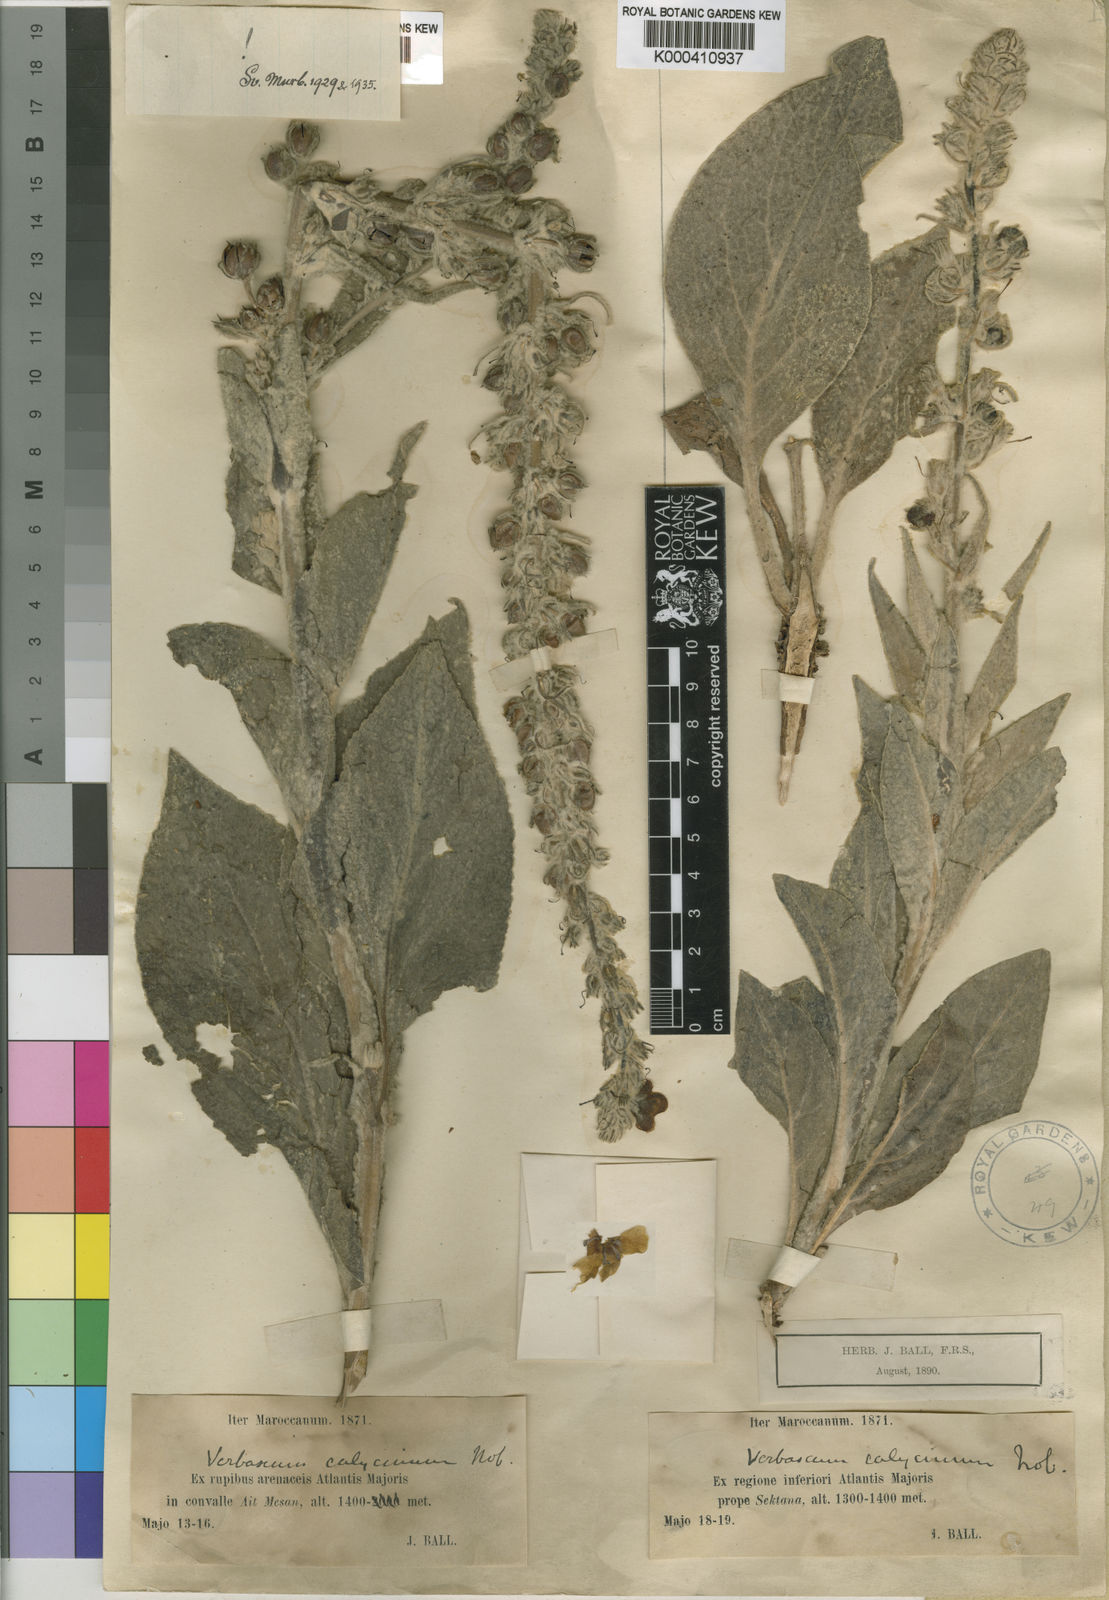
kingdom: Plantae
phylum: Tracheophyta
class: Magnoliopsida
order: Lamiales
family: Scrophulariaceae
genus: Verbascum
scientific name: Verbascum calycinum
